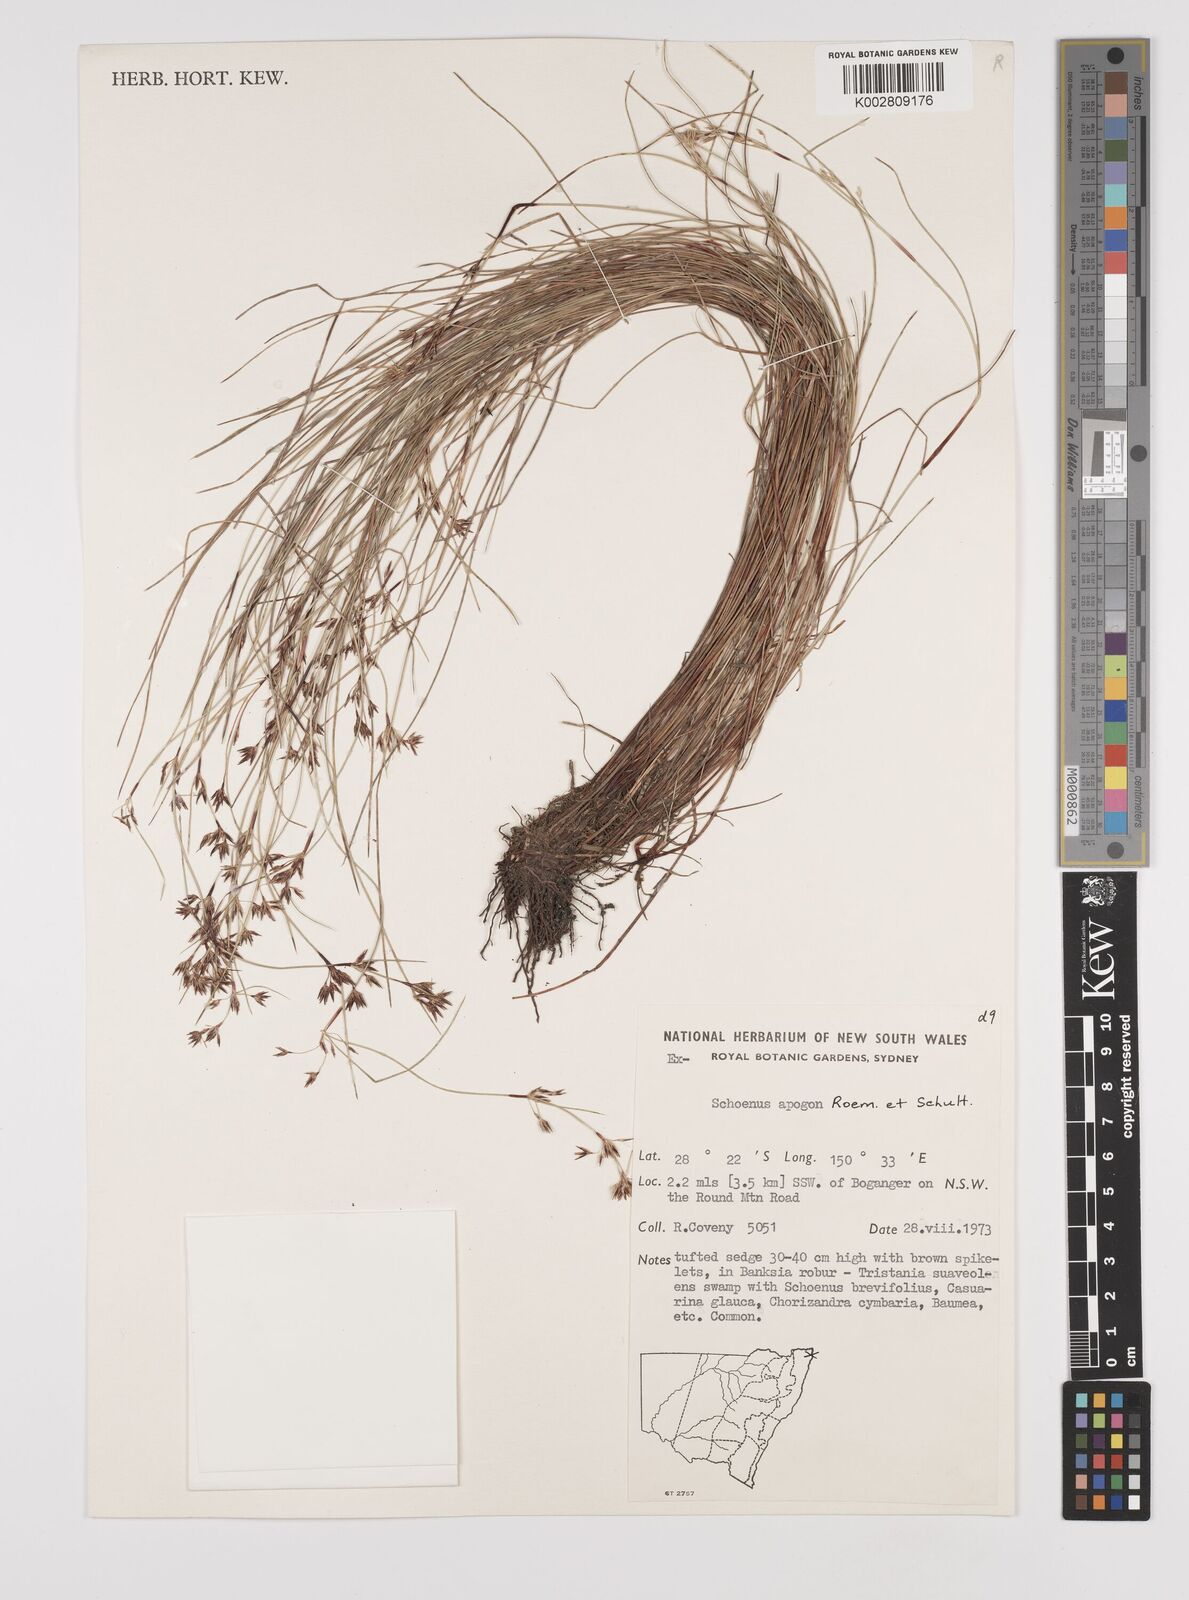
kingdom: Plantae
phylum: Tracheophyta
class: Liliopsida
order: Poales
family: Cyperaceae
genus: Schoenus
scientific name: Schoenus apogon
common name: Smooth bogrush
